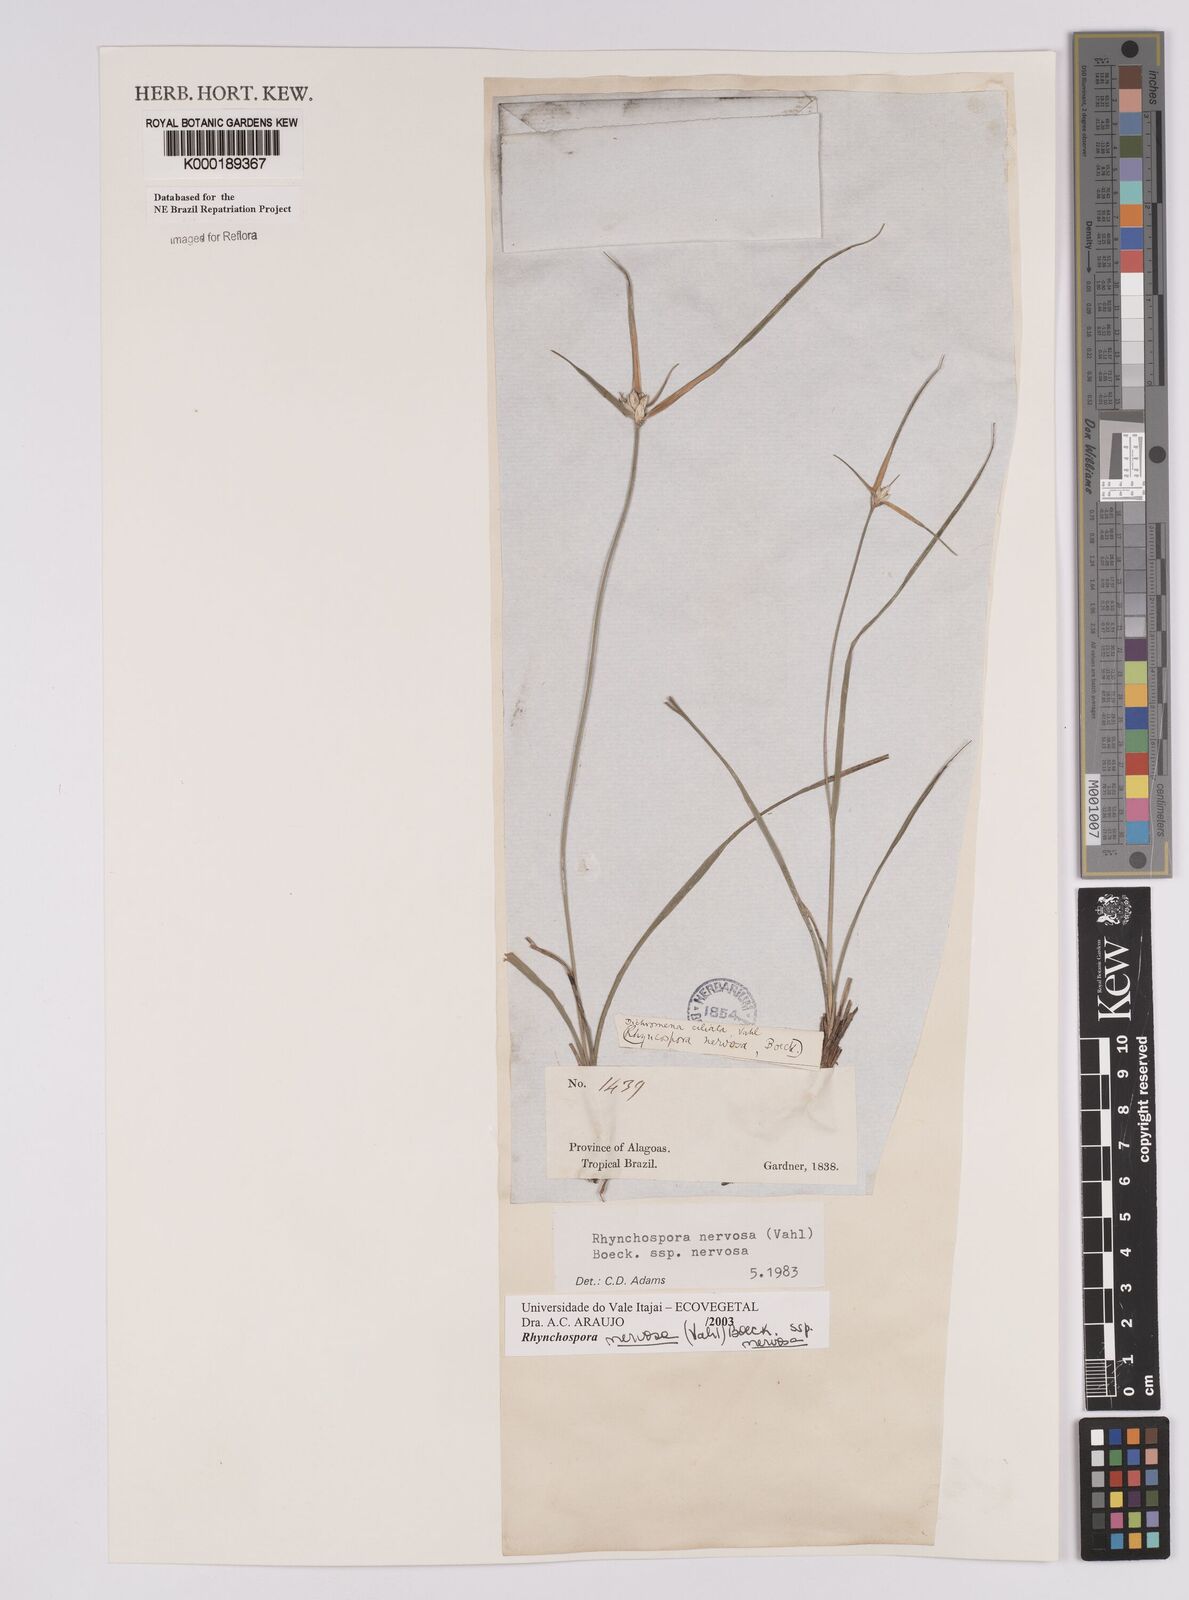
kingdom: Plantae
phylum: Tracheophyta
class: Liliopsida
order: Poales
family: Cyperaceae
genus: Rhynchospora
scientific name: Rhynchospora nervosa
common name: Star sedge
